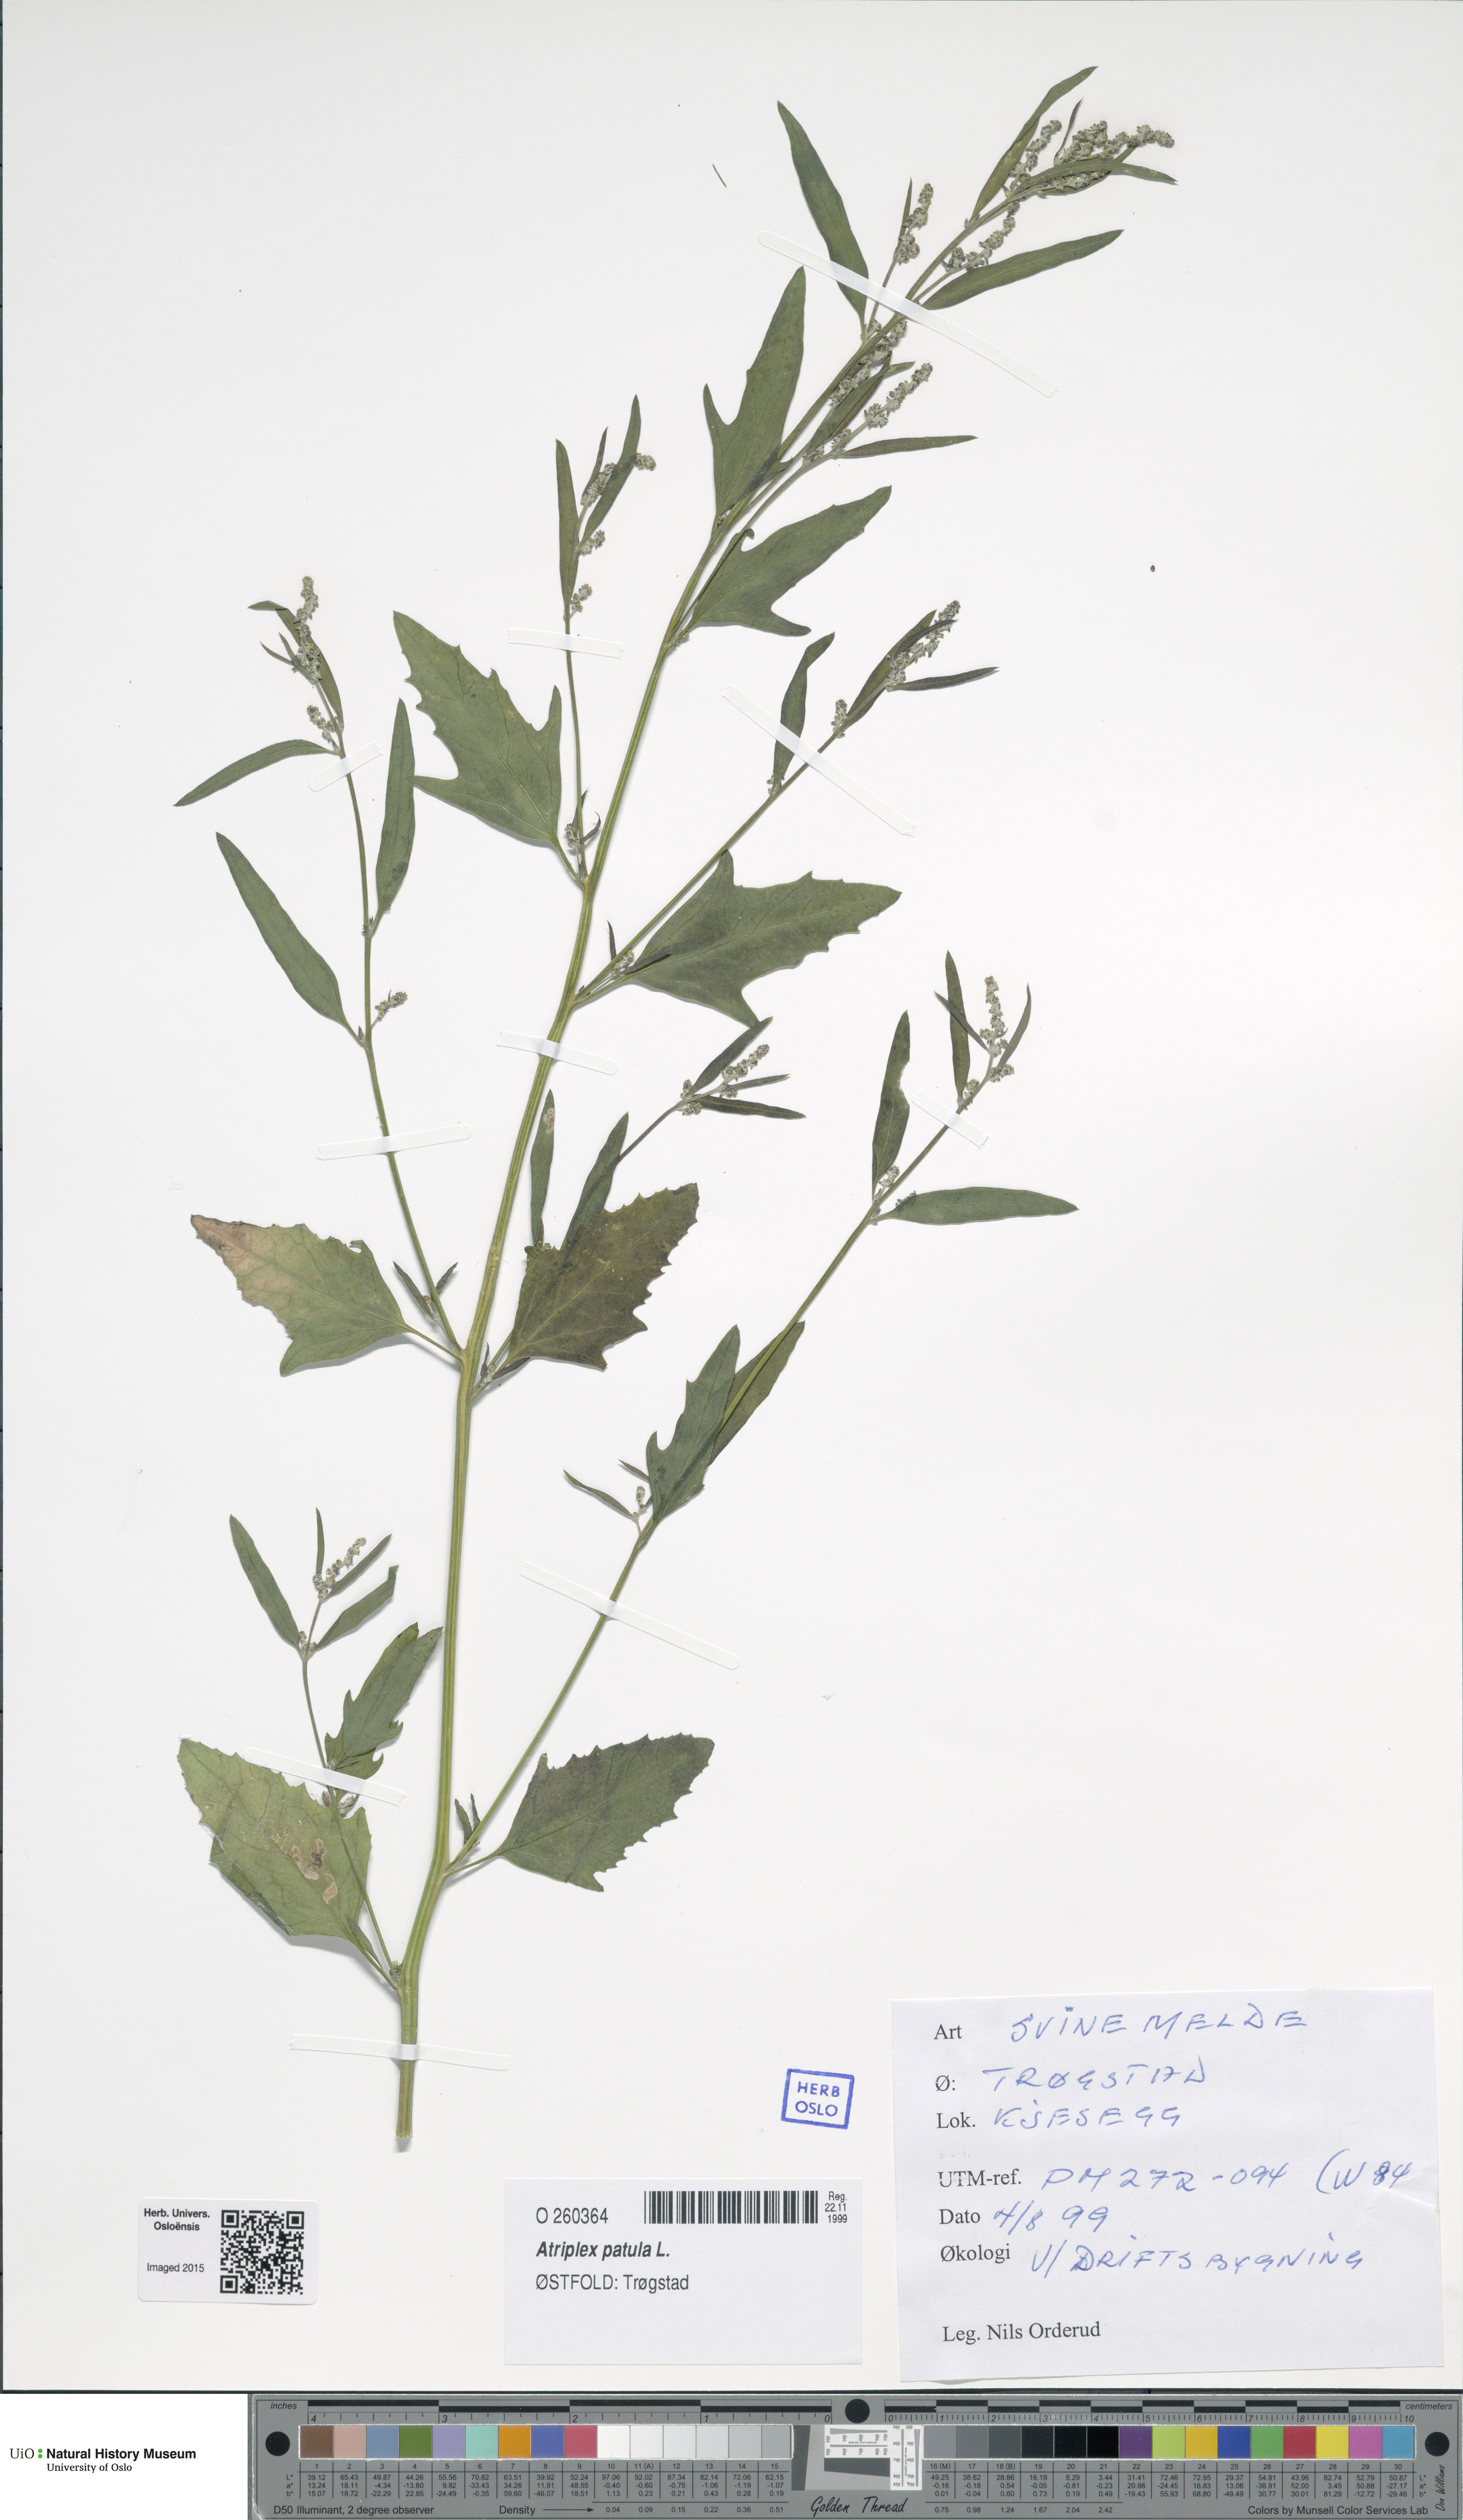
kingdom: Plantae
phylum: Tracheophyta
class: Magnoliopsida
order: Caryophyllales
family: Amaranthaceae
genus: Atriplex
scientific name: Atriplex patula
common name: Common orache
